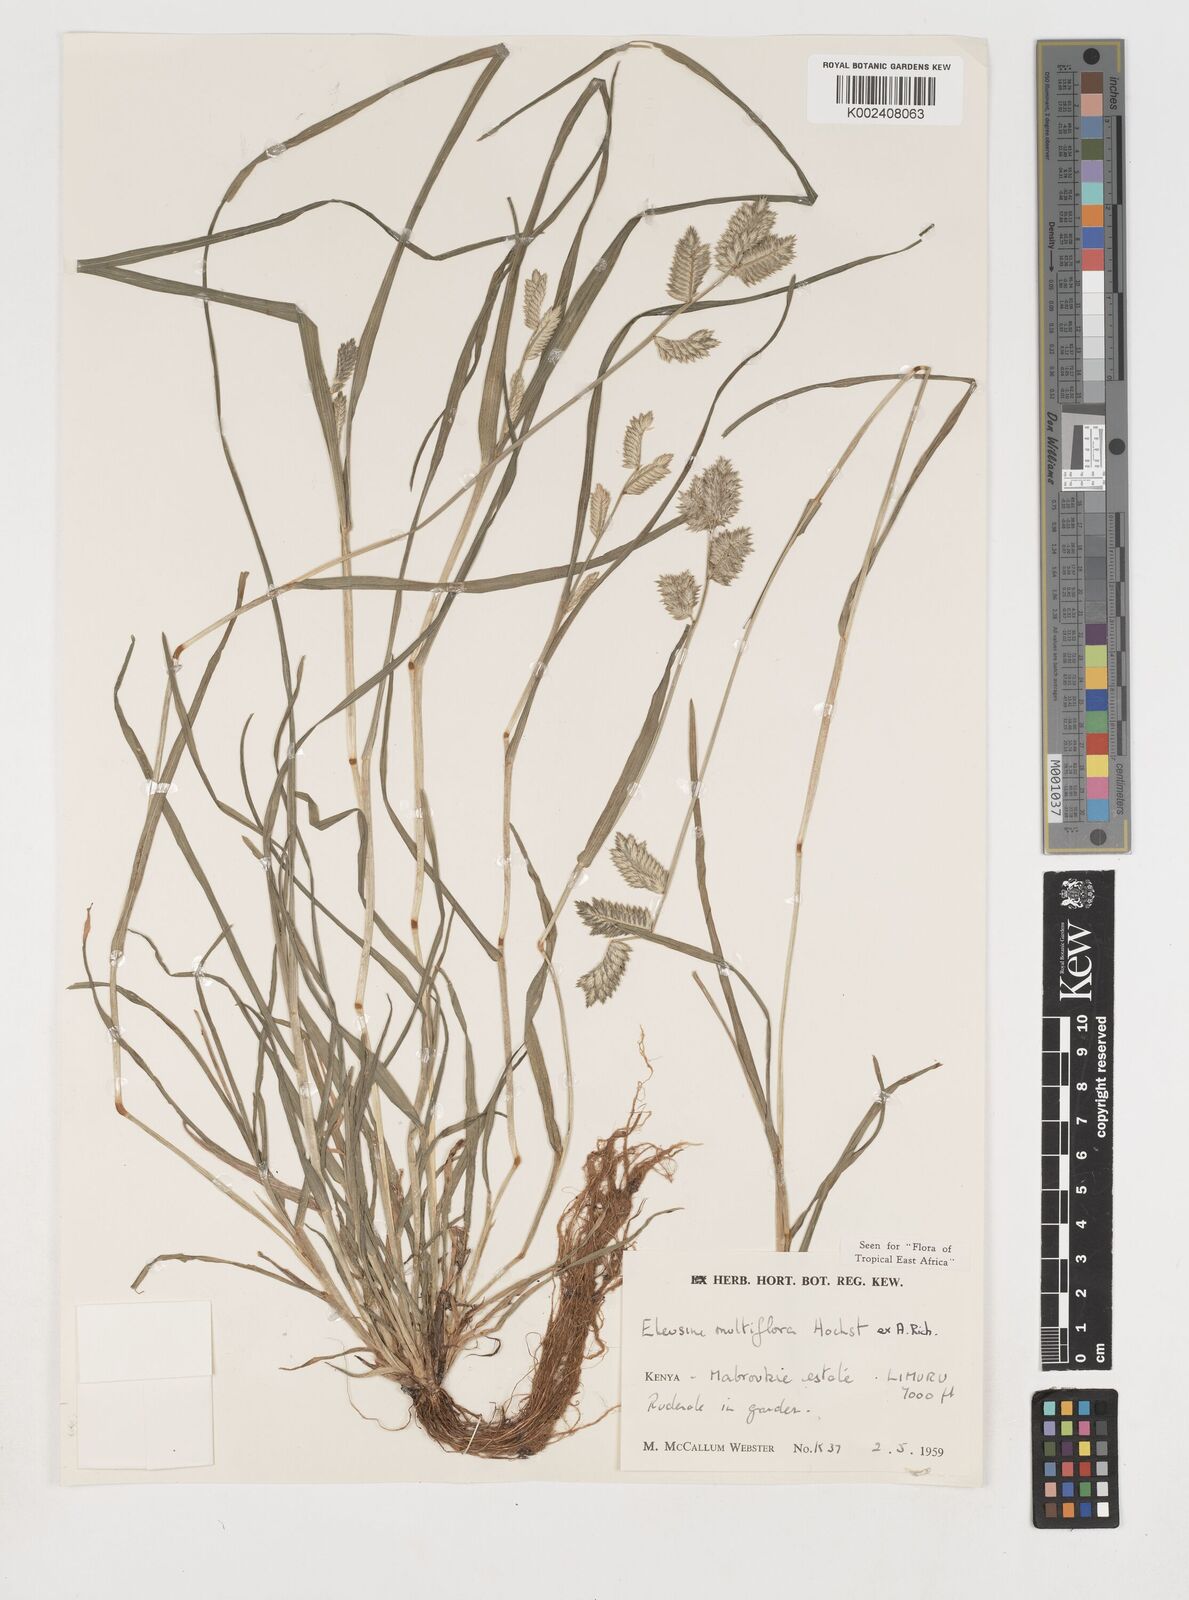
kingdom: Plantae
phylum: Tracheophyta
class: Liliopsida
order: Poales
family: Poaceae
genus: Eleusine
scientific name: Eleusine multiflora
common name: Fat-spiked yard-grass
